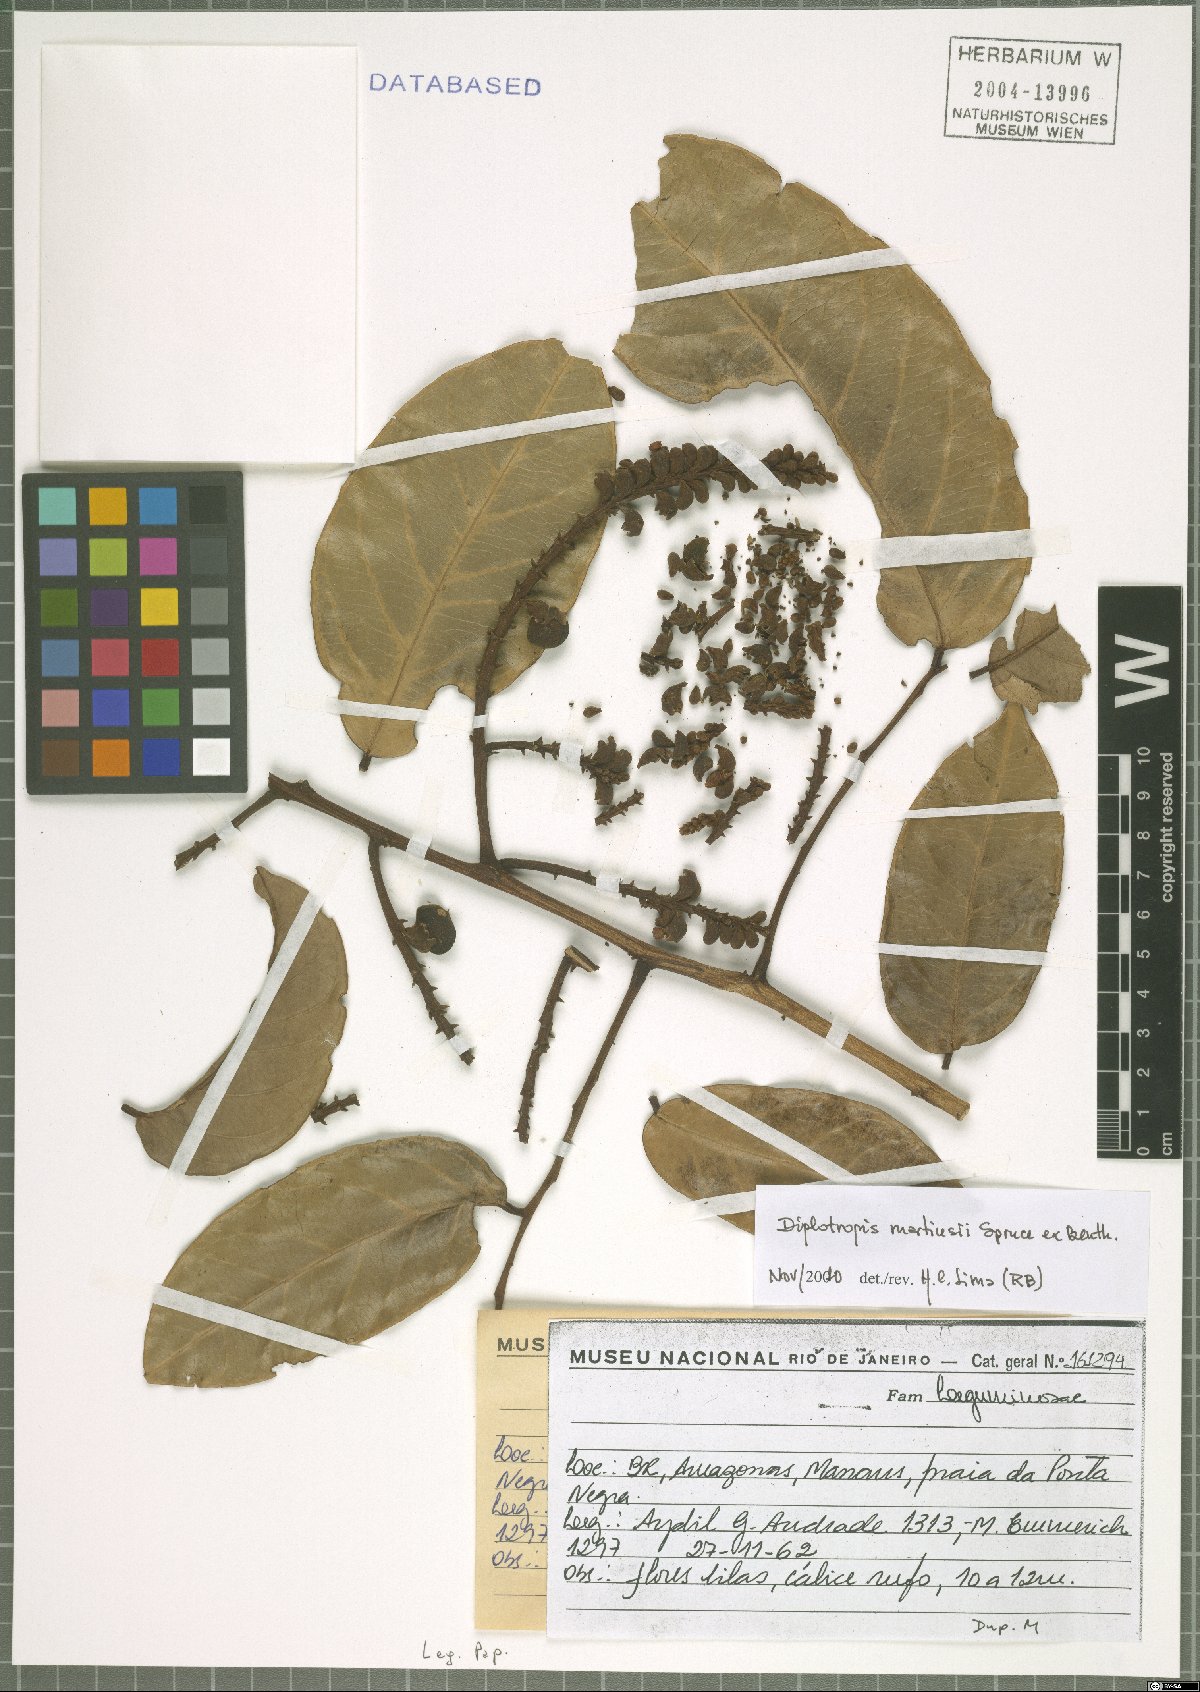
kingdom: Plantae
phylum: Tracheophyta
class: Magnoliopsida
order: Fabales
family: Fabaceae
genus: Diplotropis
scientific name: Diplotropis martiusii
